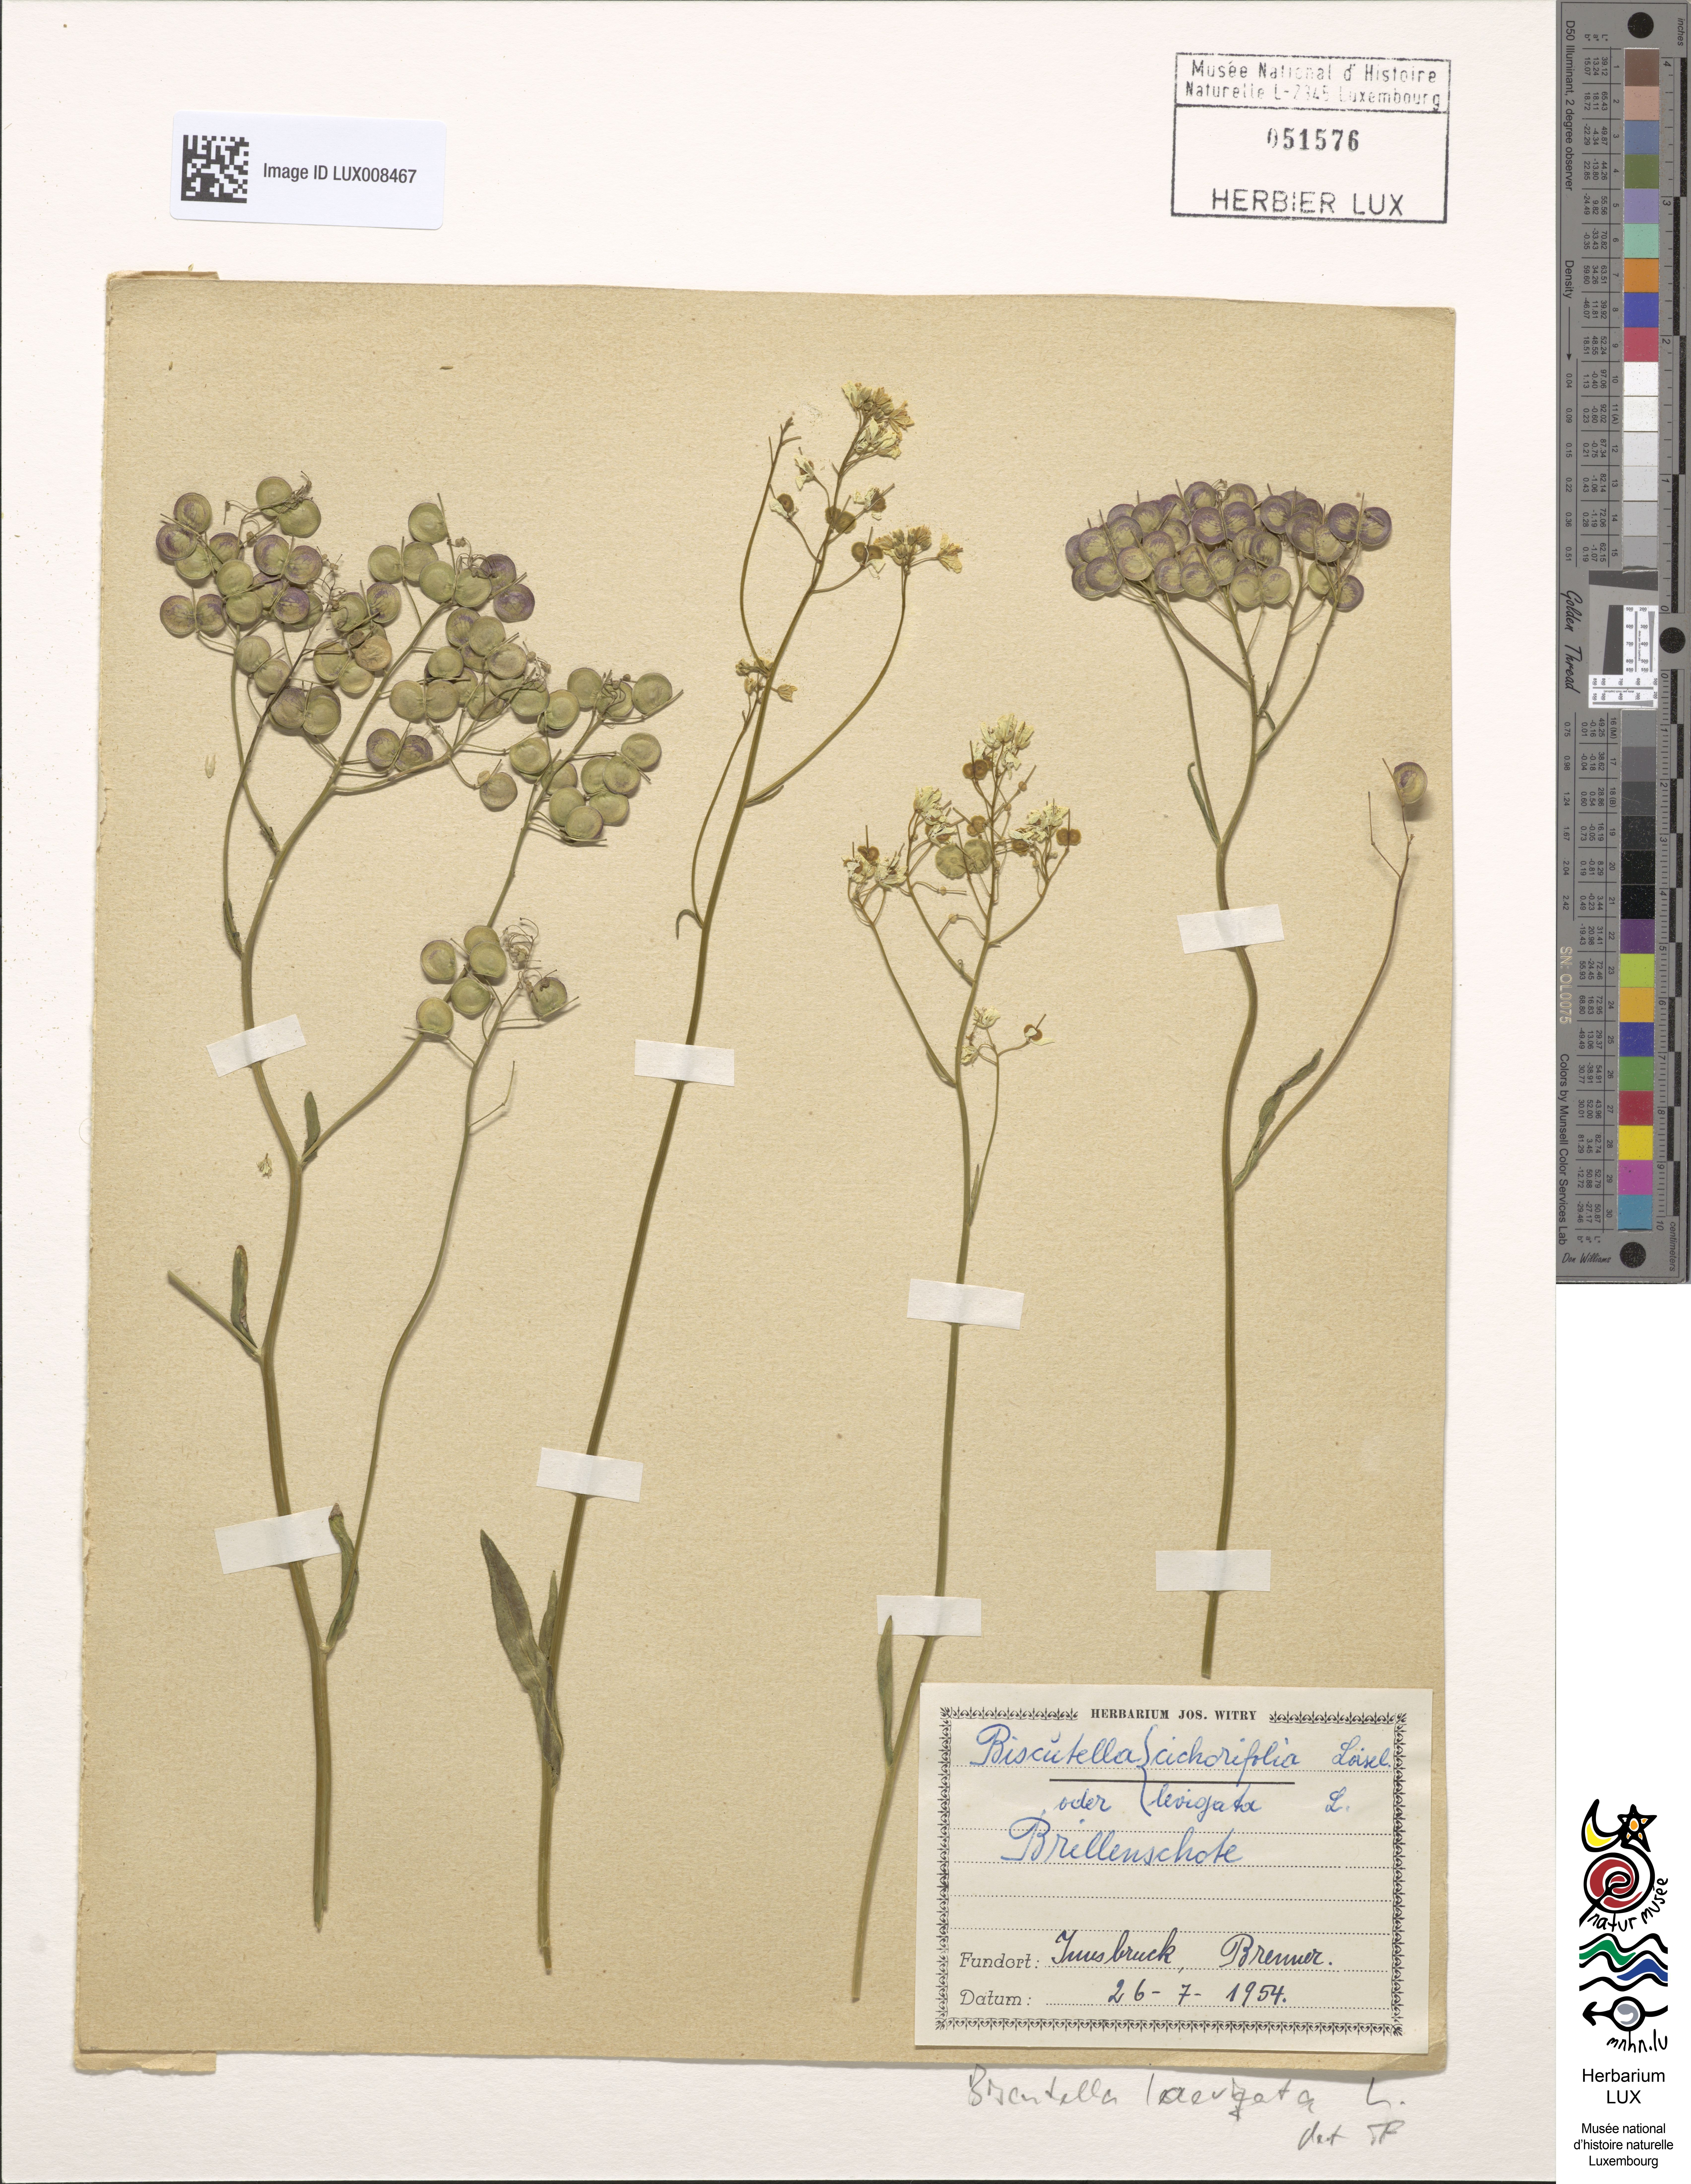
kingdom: Plantae
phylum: Tracheophyta
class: Magnoliopsida
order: Brassicales
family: Brassicaceae
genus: Biscutella
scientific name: Biscutella laevigata
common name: Buckler mustard
